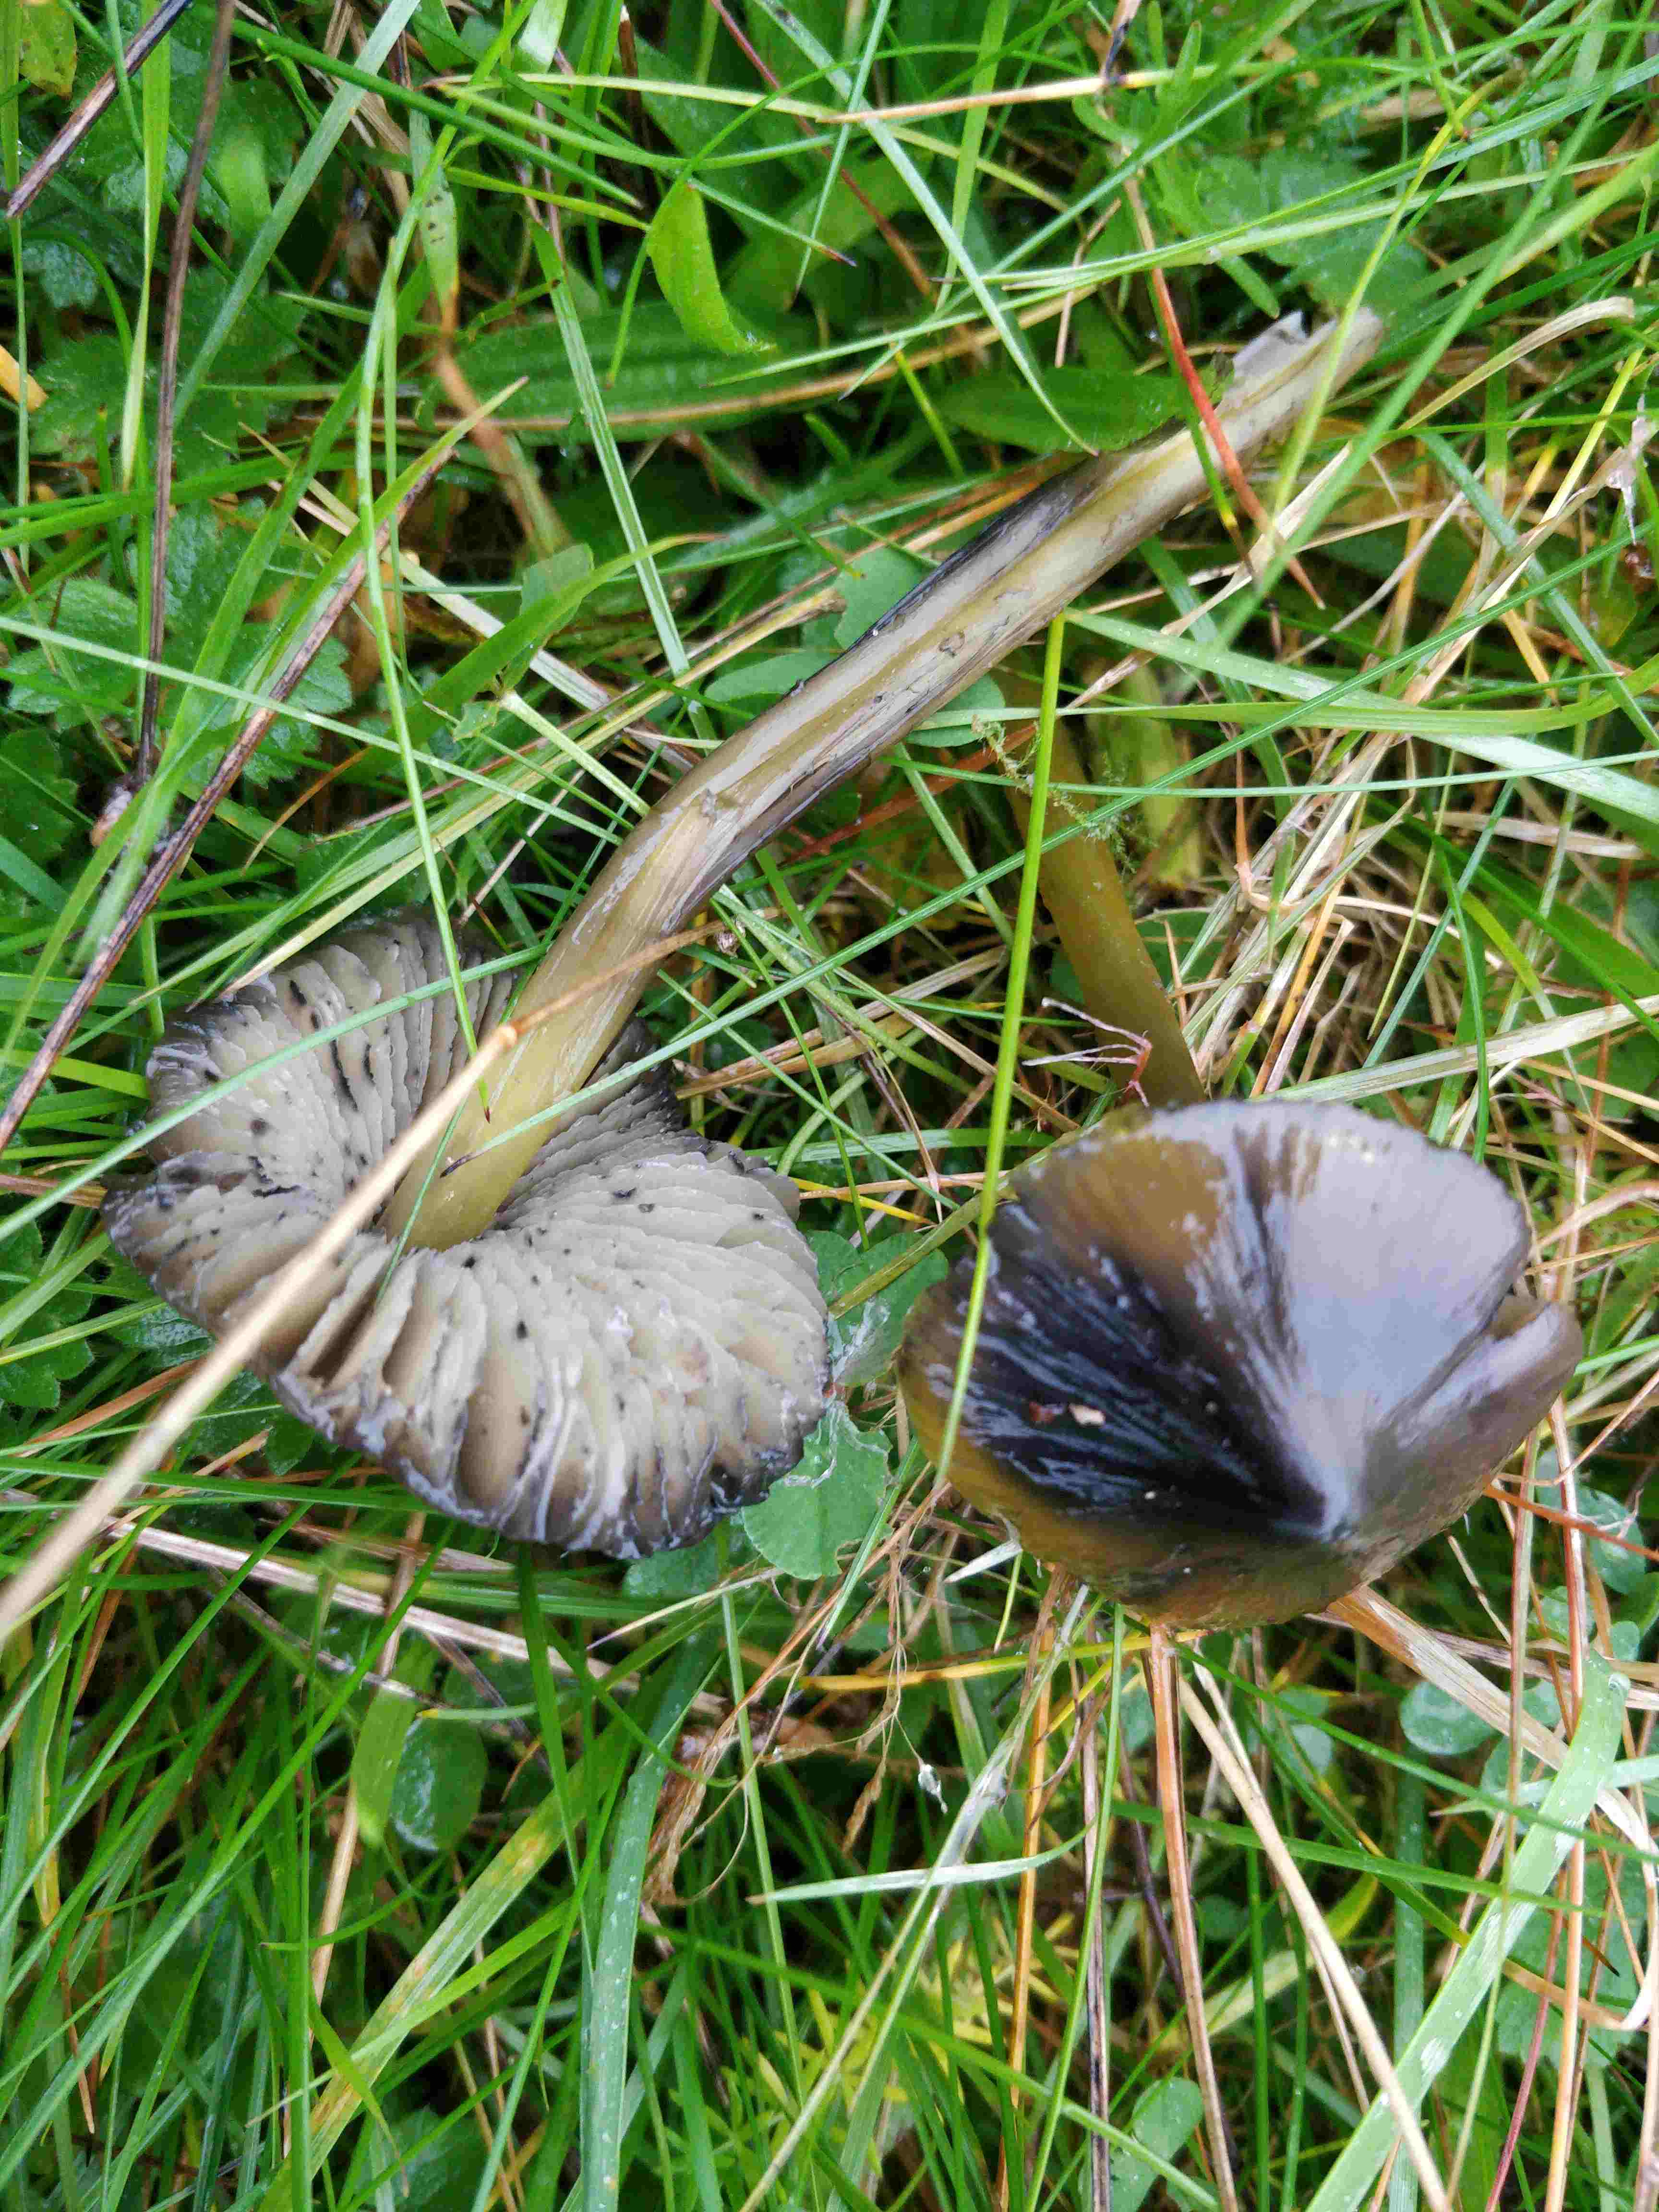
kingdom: Fungi
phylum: Basidiomycota
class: Agaricomycetes
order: Agaricales
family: Hygrophoraceae
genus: Hygrocybe
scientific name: Hygrocybe conica
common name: kegle-vokshat
